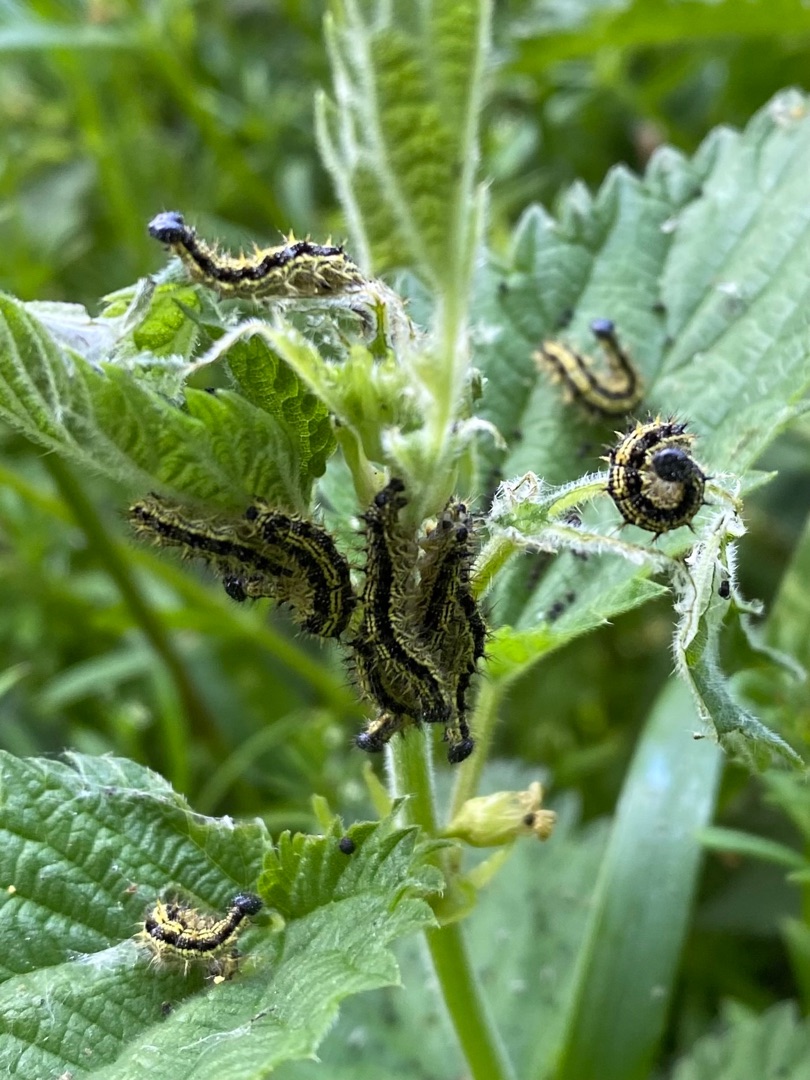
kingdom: Animalia
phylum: Arthropoda
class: Insecta
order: Lepidoptera
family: Nymphalidae
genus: Aglais
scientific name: Aglais urticae
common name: Nældens takvinge
